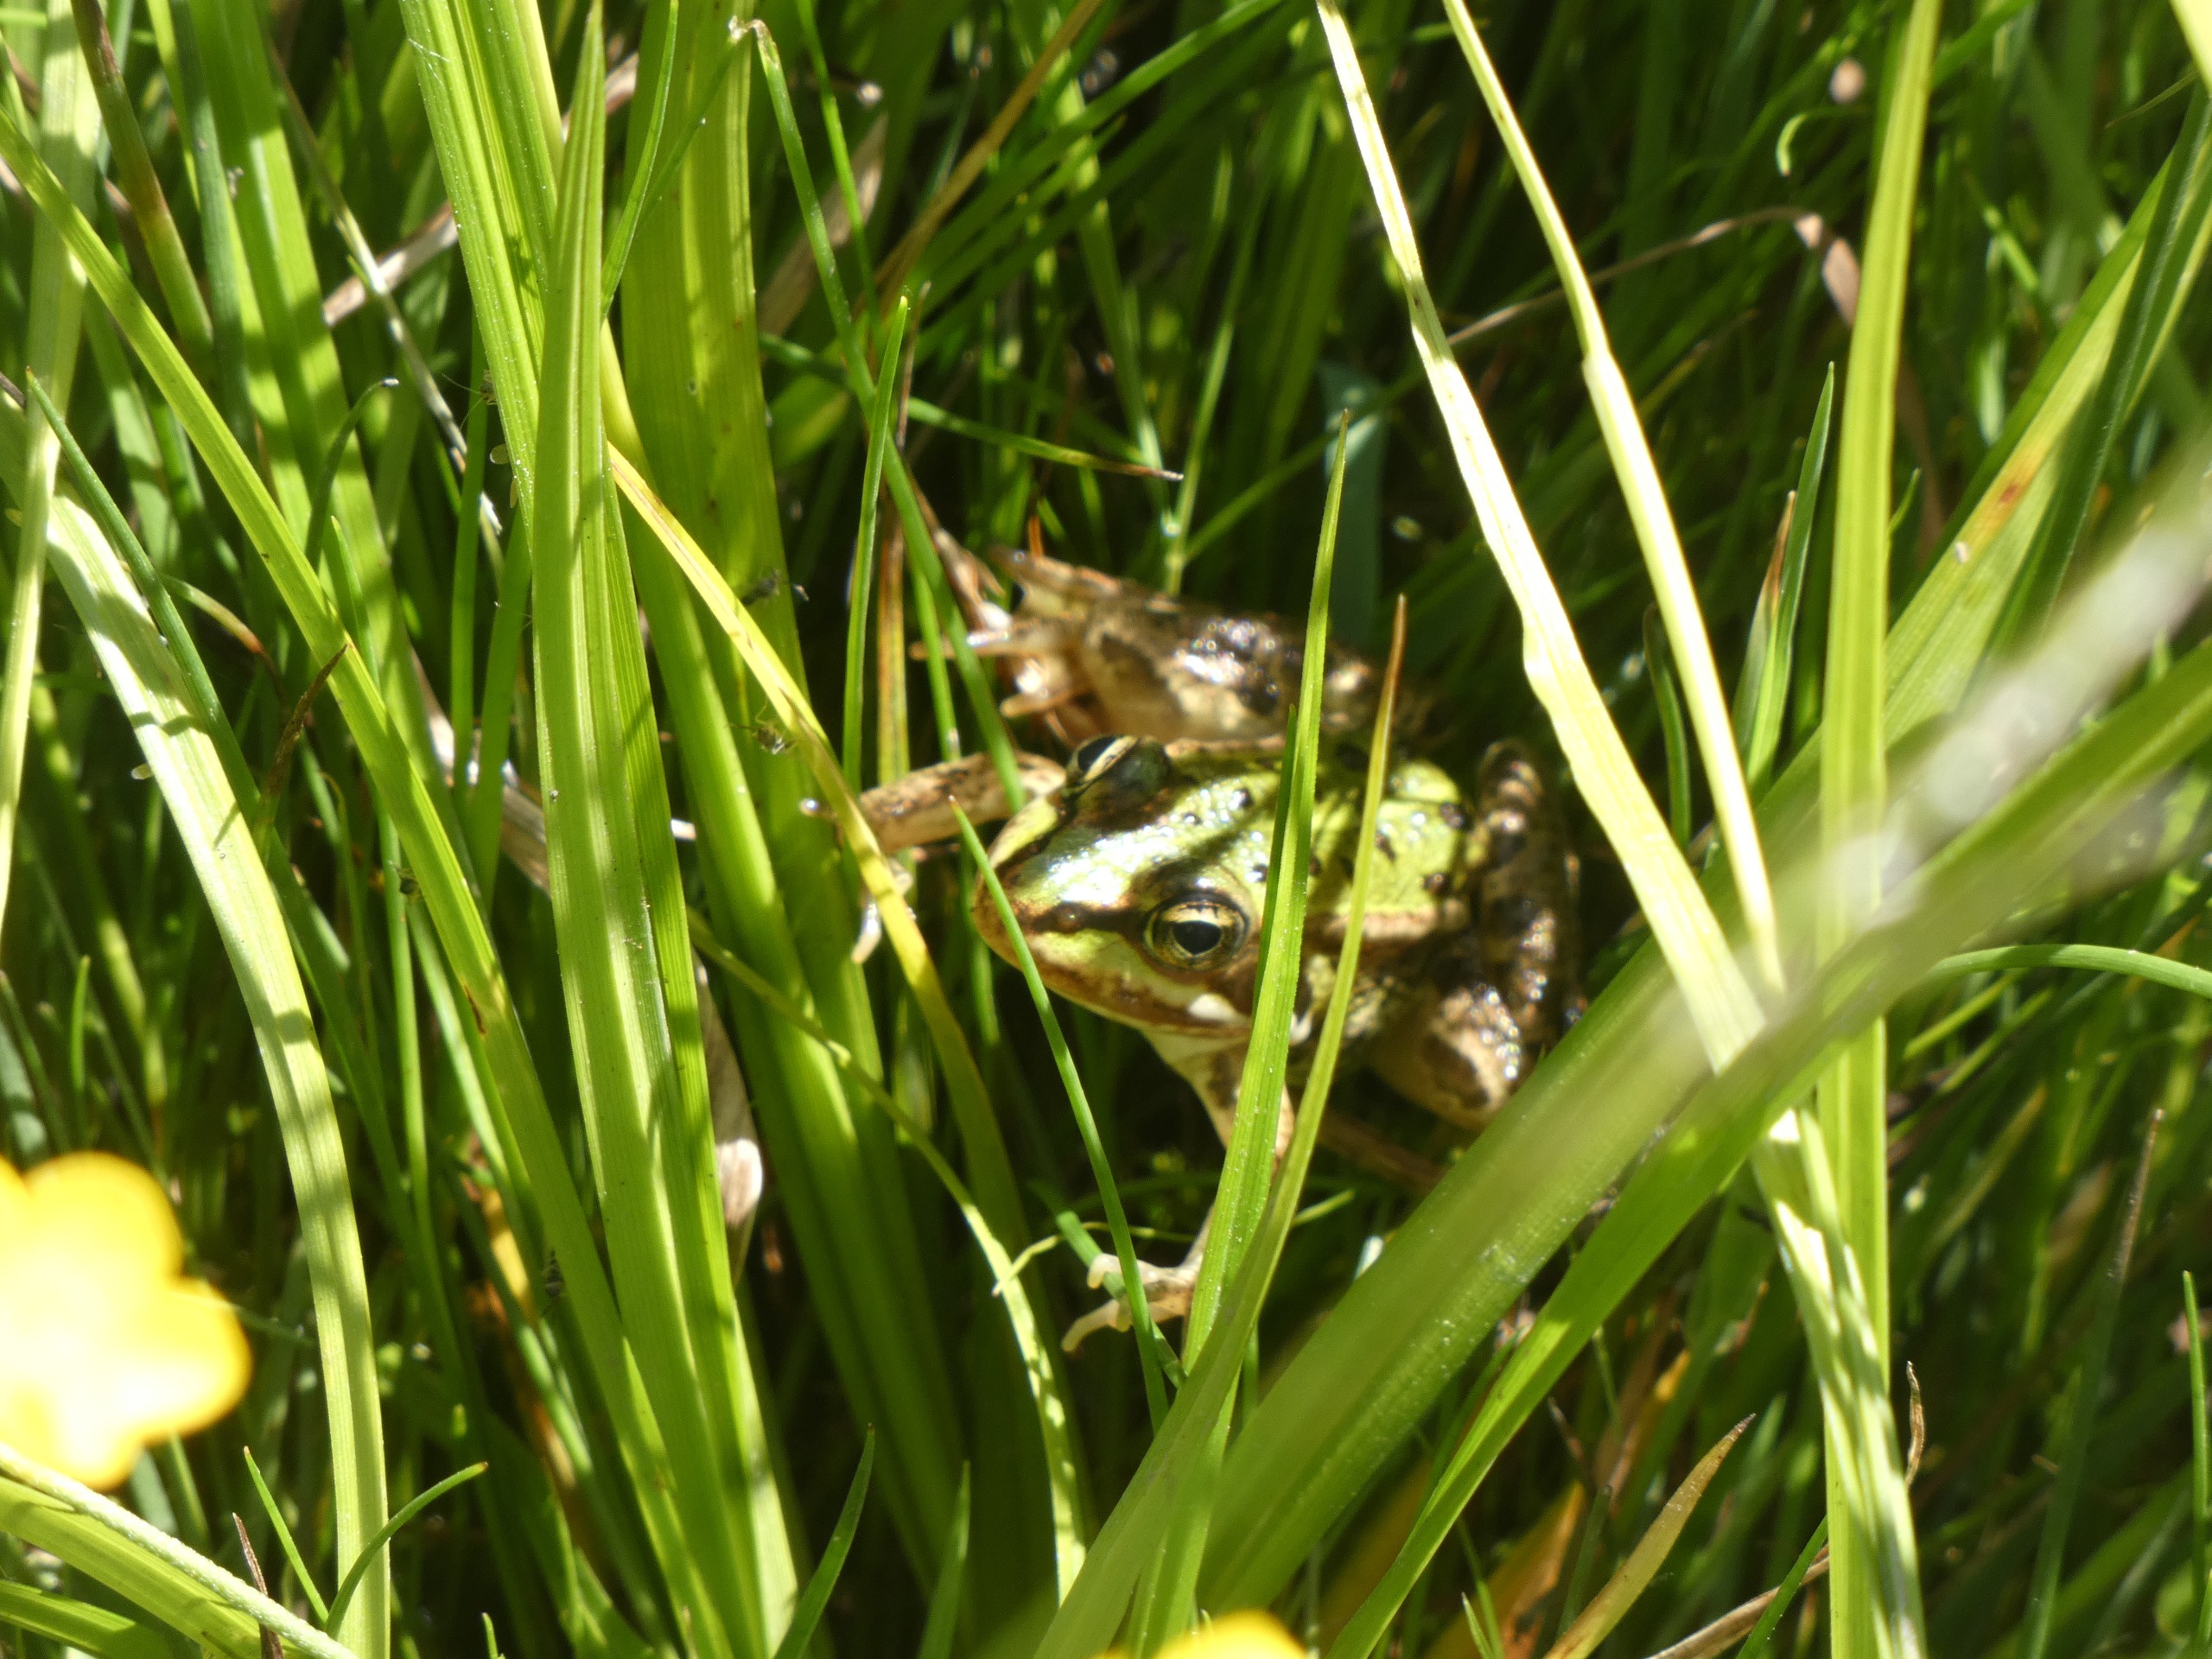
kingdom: Animalia
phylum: Chordata
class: Amphibia
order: Anura
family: Ranidae
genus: Pelophylax
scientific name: Pelophylax lessonae
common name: Grøn frø
